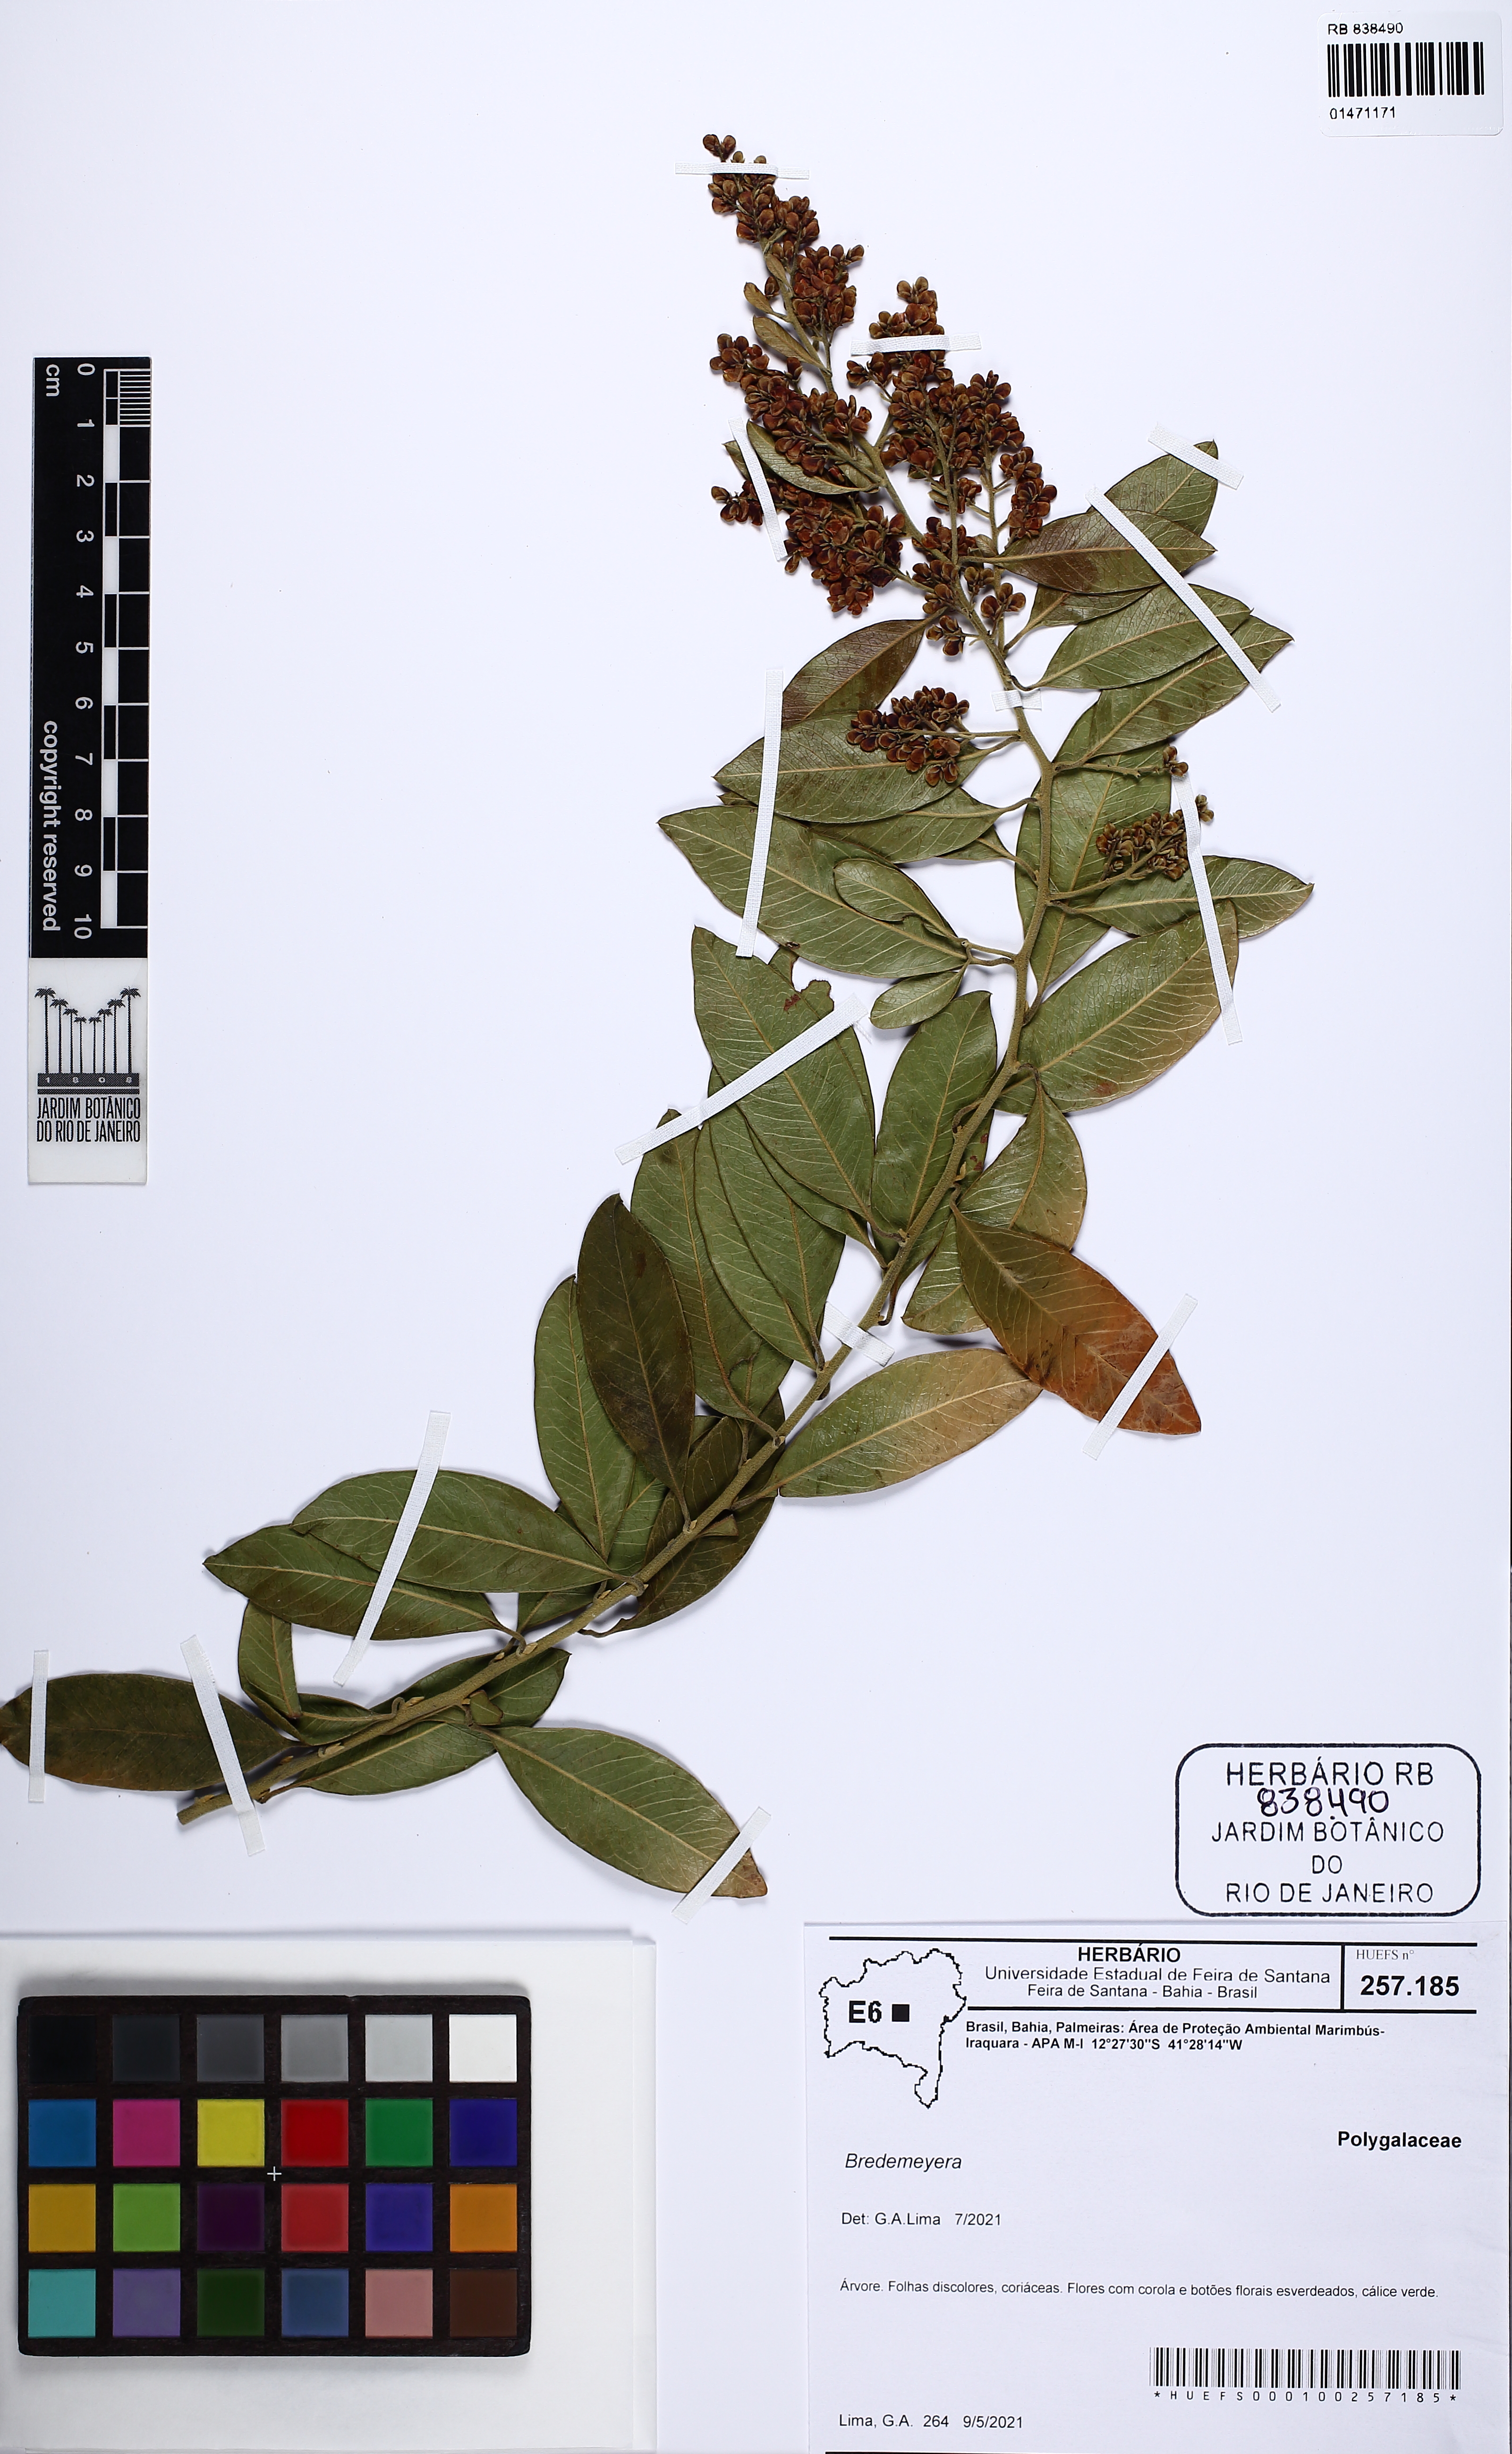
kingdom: Plantae
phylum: Tracheophyta
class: Magnoliopsida
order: Gentianales
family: Rubiaceae
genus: Spermacoce
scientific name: Spermacoce
